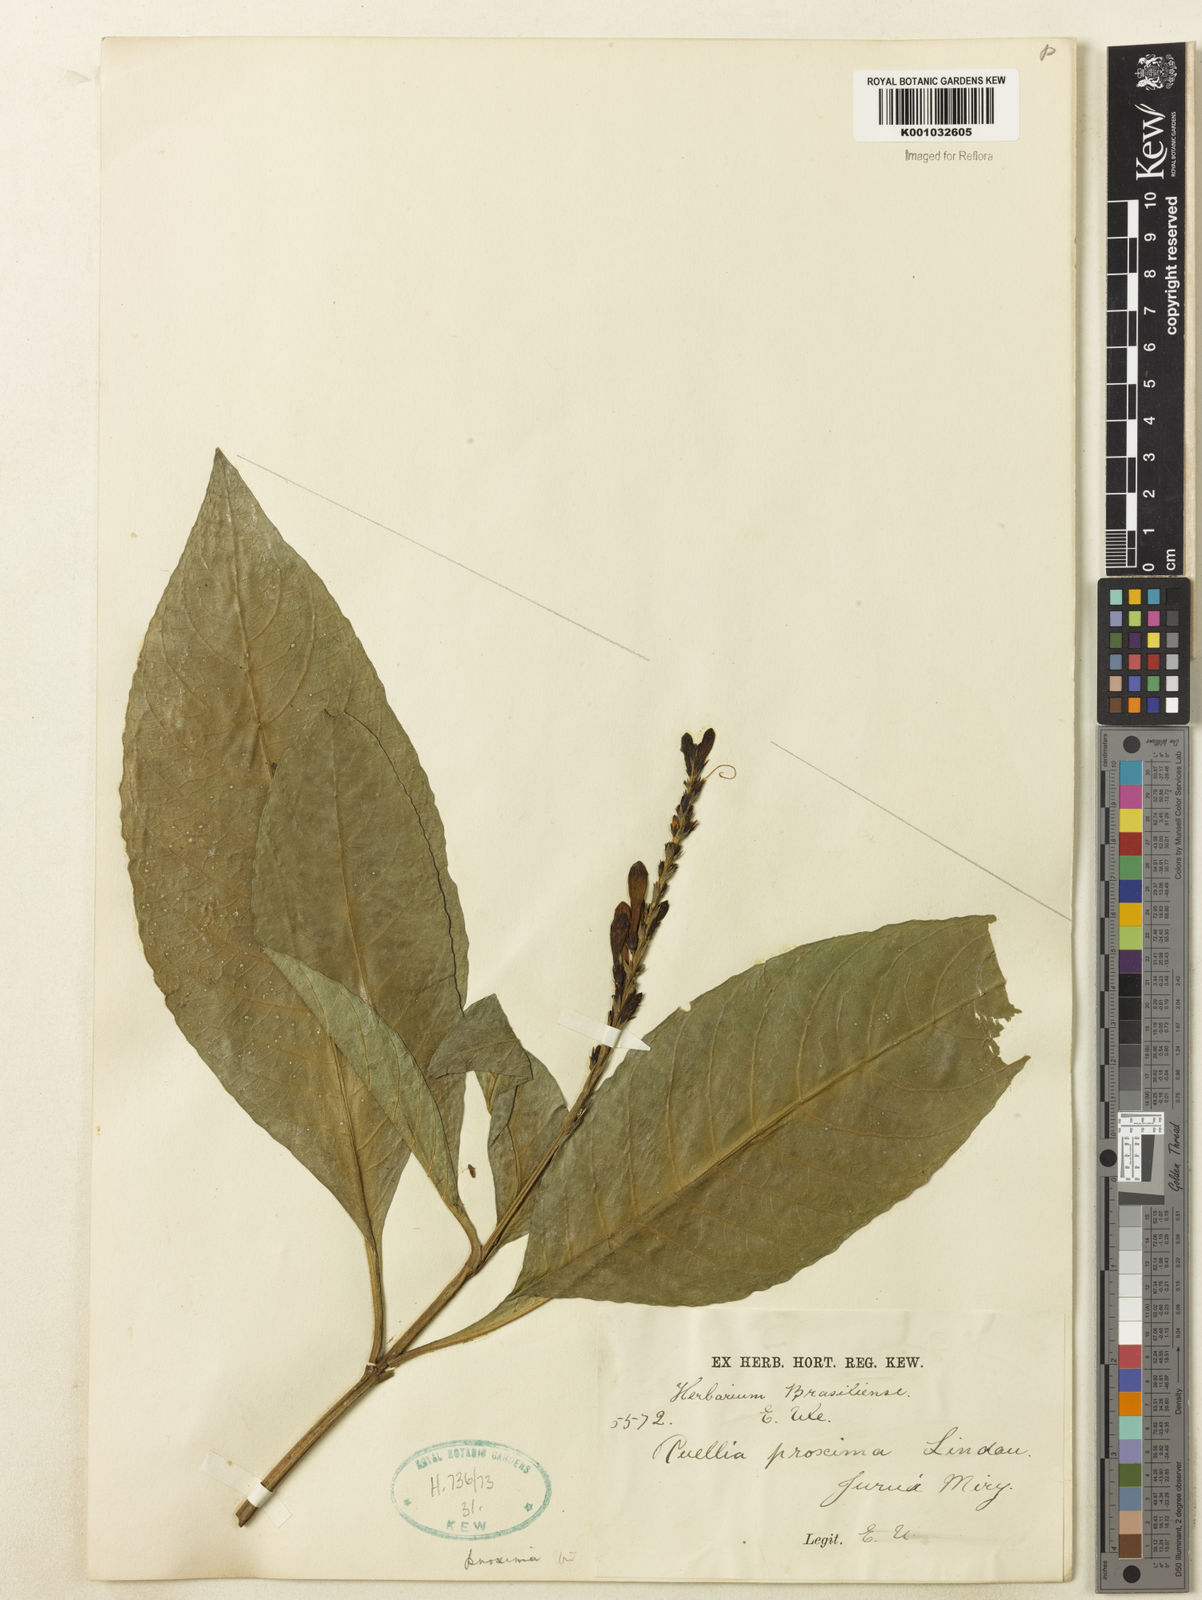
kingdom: Plantae
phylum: Tracheophyta
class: Magnoliopsida
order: Lamiales
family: Acanthaceae
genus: Ruellia
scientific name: Ruellia proxima
